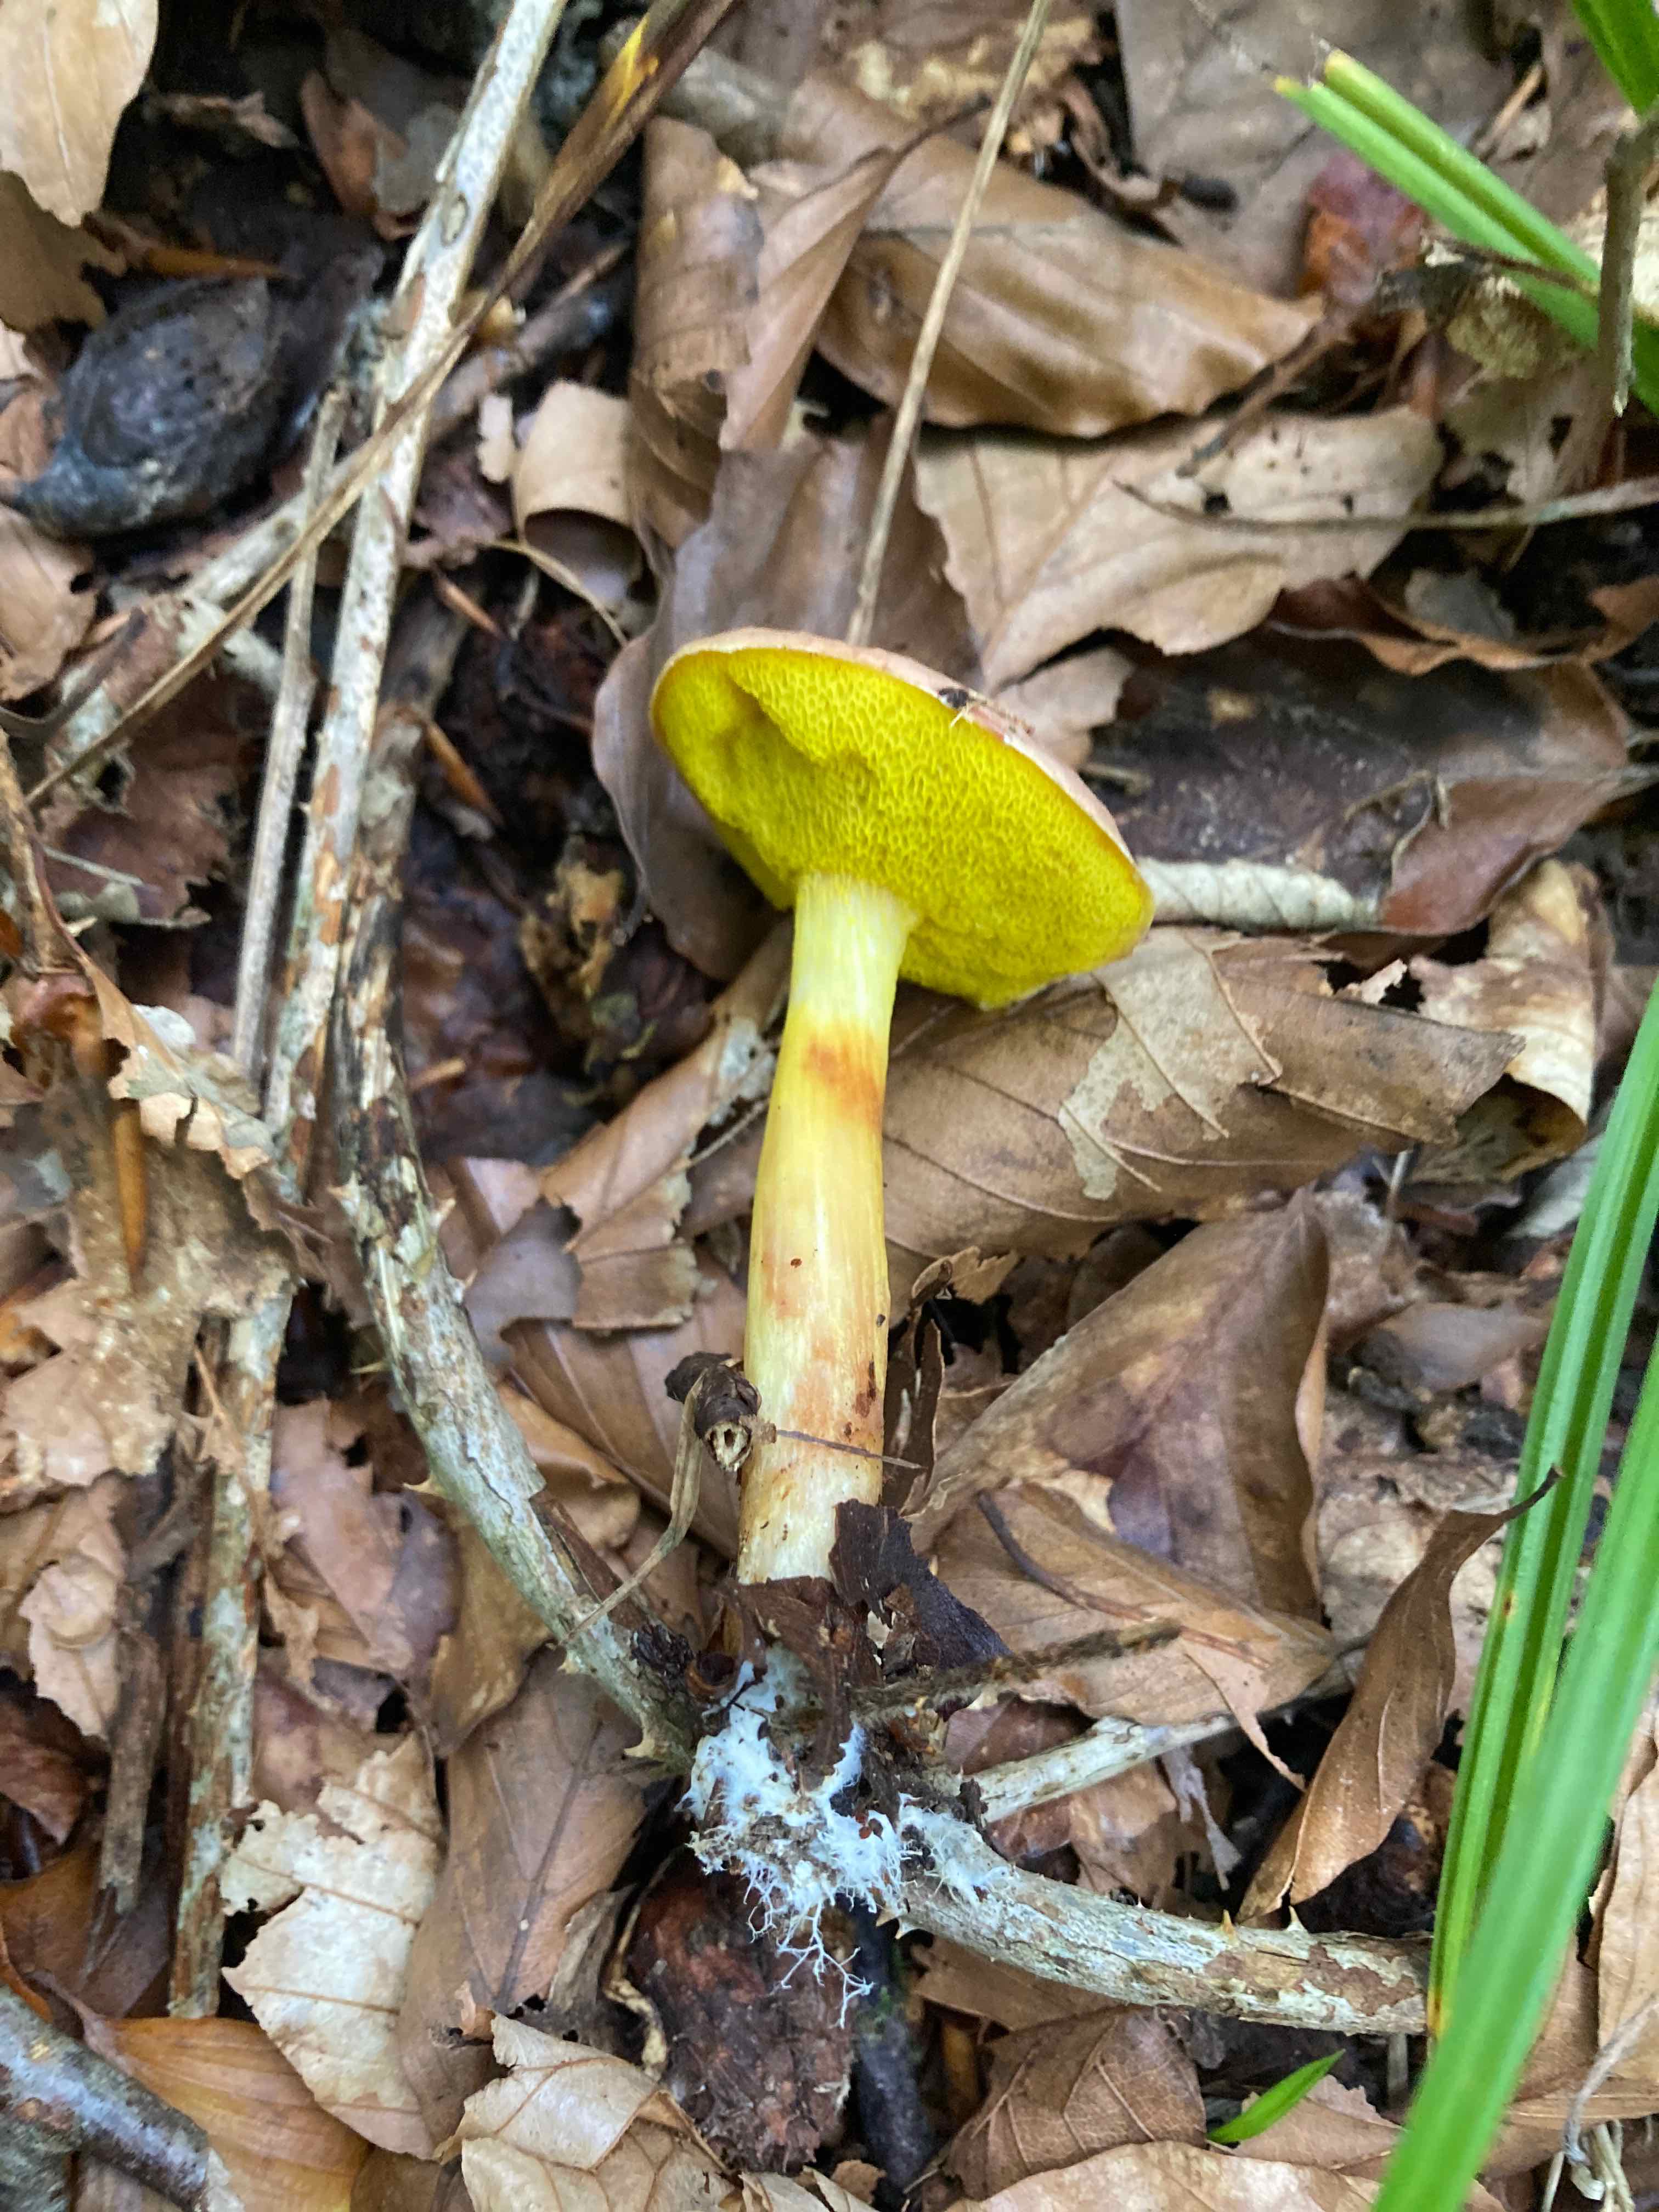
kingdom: Fungi
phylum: Basidiomycota
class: Agaricomycetes
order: Boletales
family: Boletaceae
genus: Aureoboletus
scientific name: Aureoboletus gentilis
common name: guldrørhat
